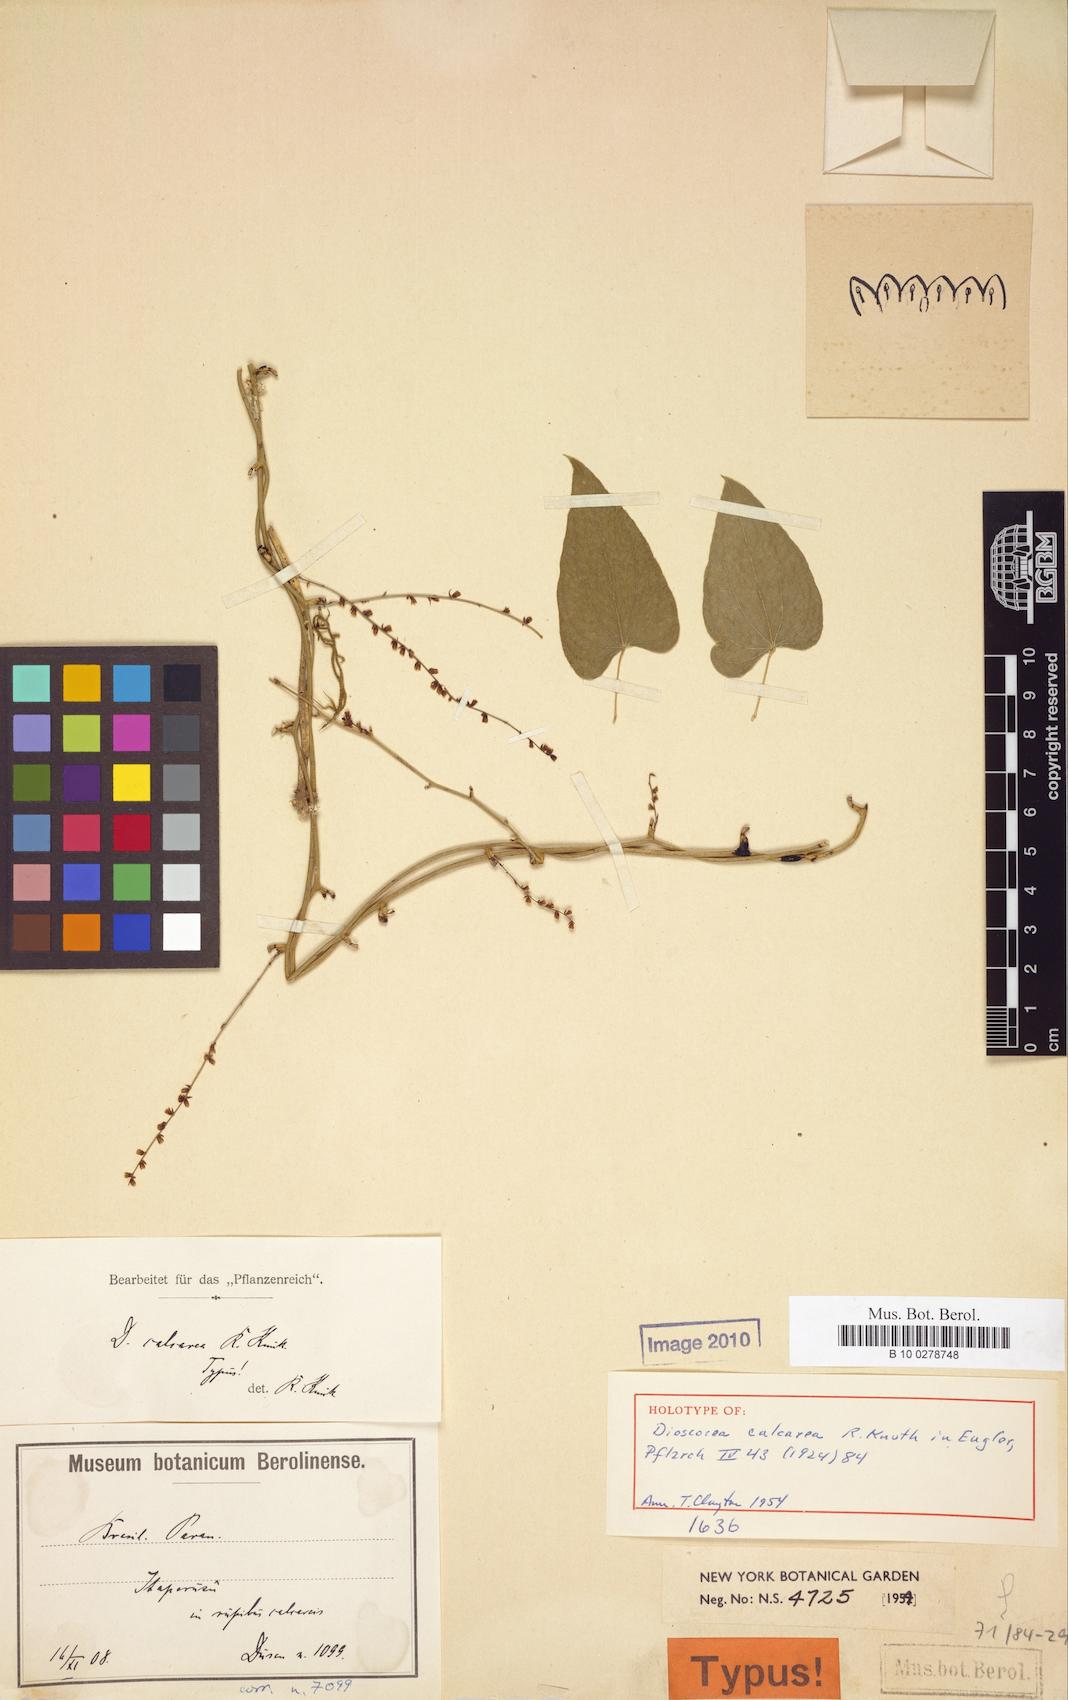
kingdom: Plantae
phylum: Tracheophyta
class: Liliopsida
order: Dioscoreales
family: Dioscoreaceae
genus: Dioscorea
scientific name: Dioscorea chondrocarpa
